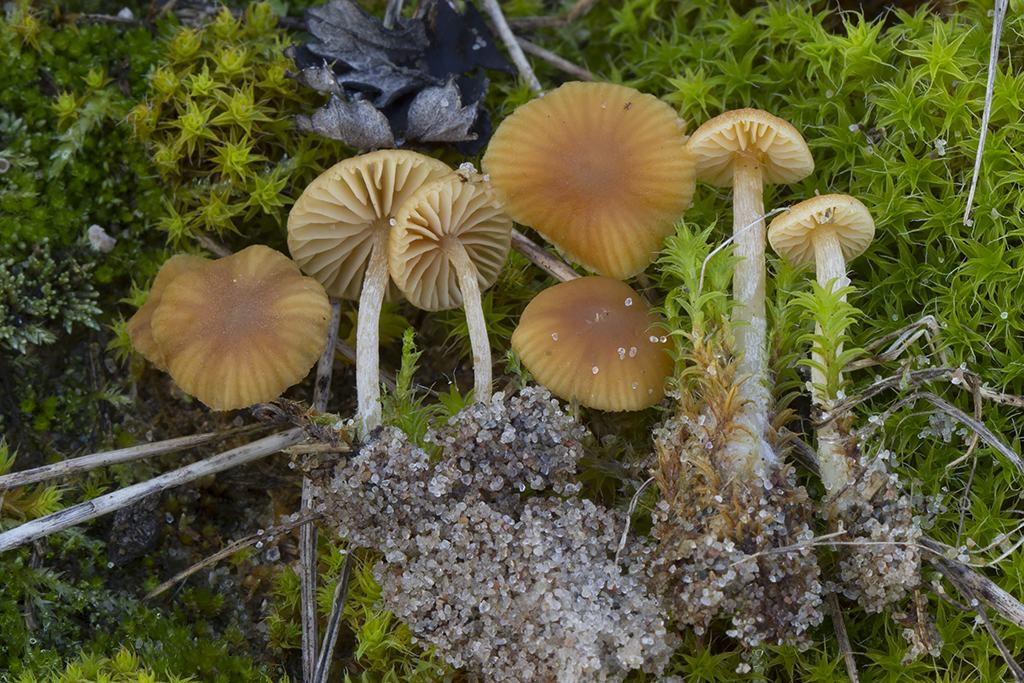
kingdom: Fungi
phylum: Basidiomycota
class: Agaricomycetes
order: Agaricales
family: Hymenogastraceae
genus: Galerina
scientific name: Galerina graminea
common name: plæne-hjelmhat
